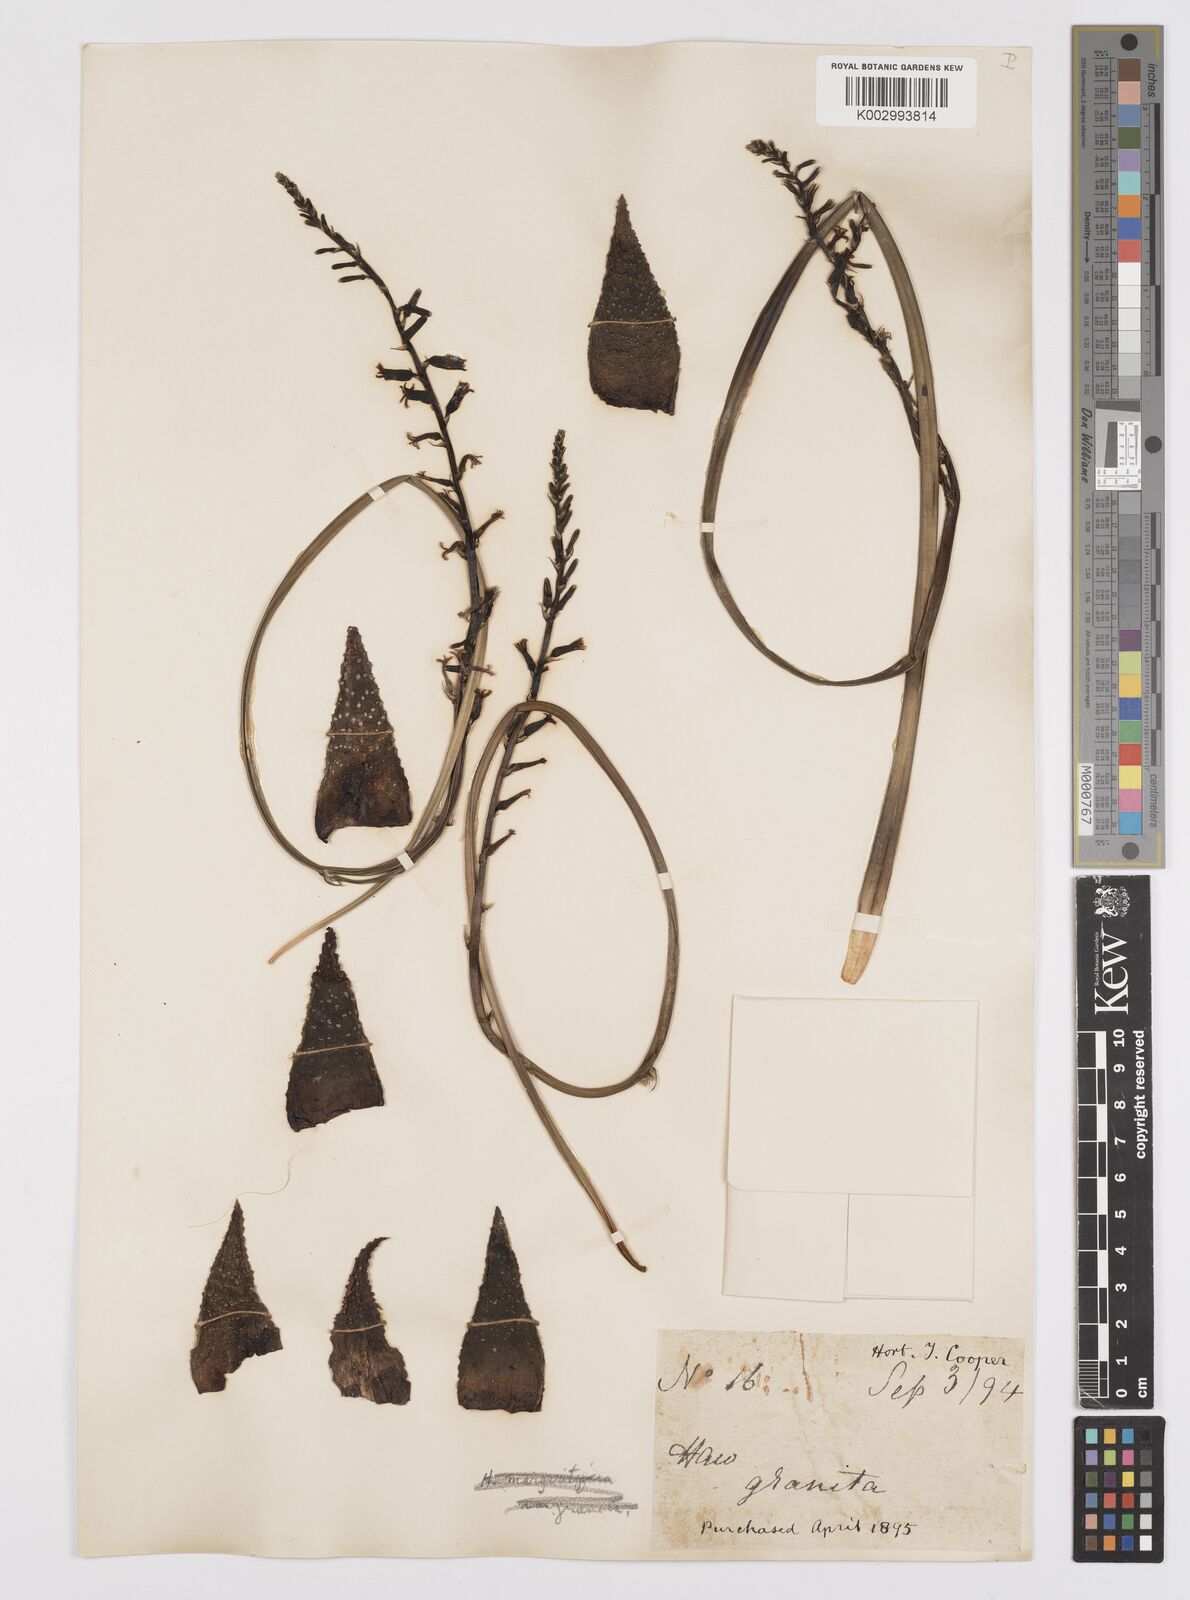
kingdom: Plantae
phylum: Tracheophyta
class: Liliopsida
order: Asparagales
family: Asphodelaceae
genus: Tulista
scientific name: Tulista pumila
